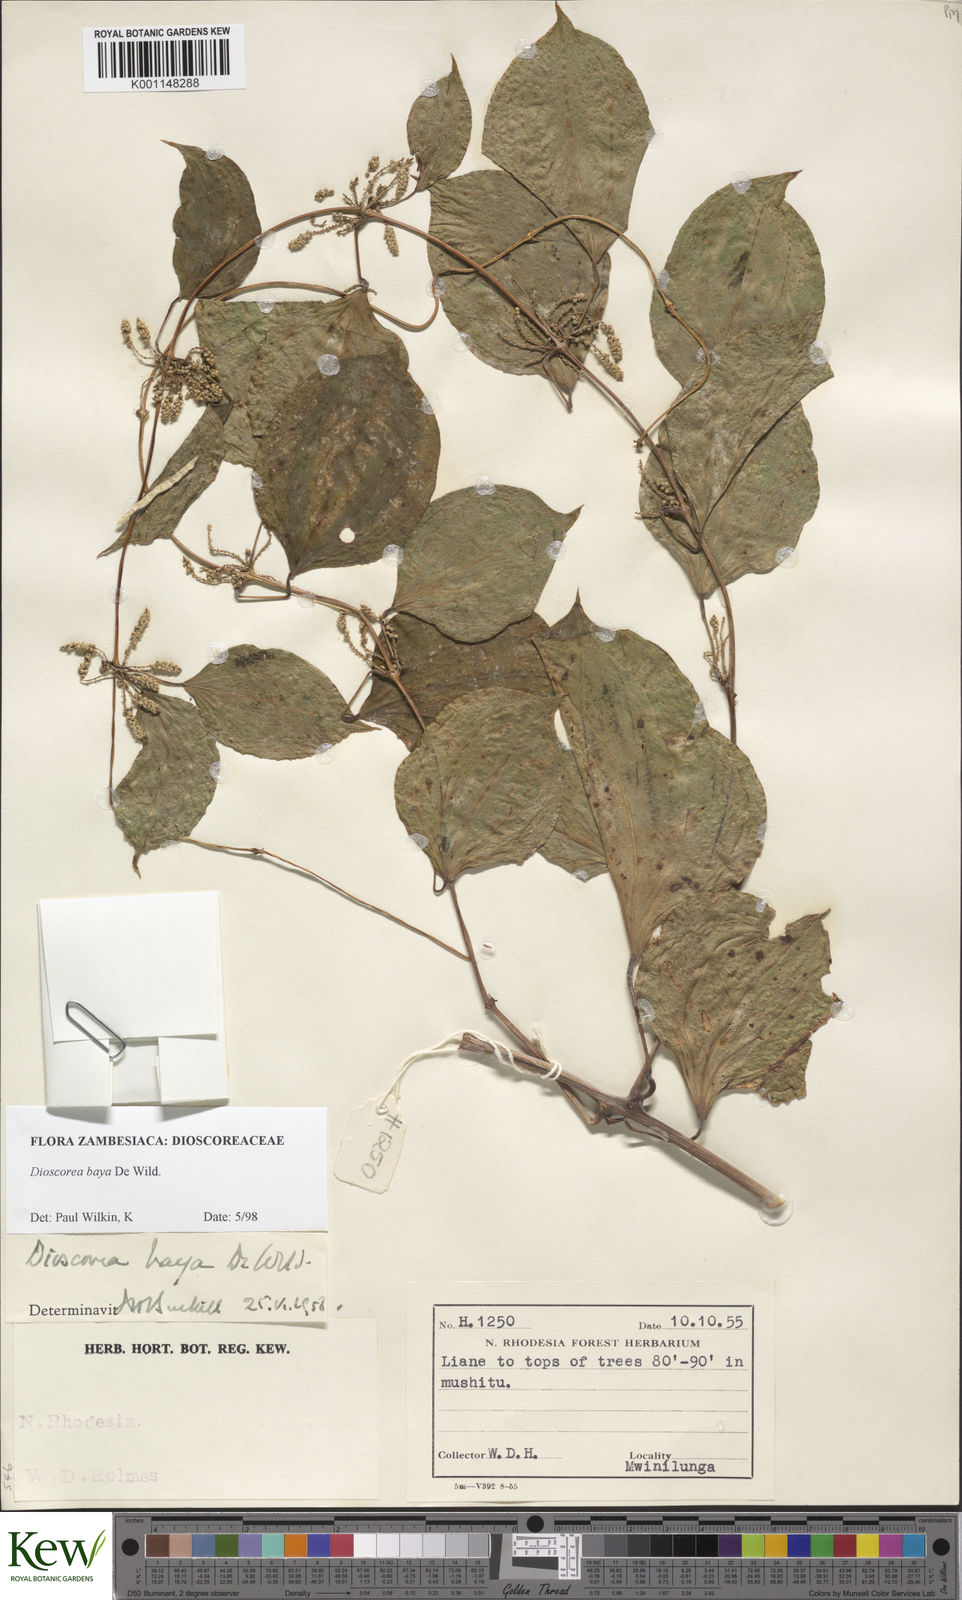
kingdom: Plantae
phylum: Tracheophyta
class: Liliopsida
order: Dioscoreales
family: Dioscoreaceae
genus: Dioscorea
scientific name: Dioscorea baya
